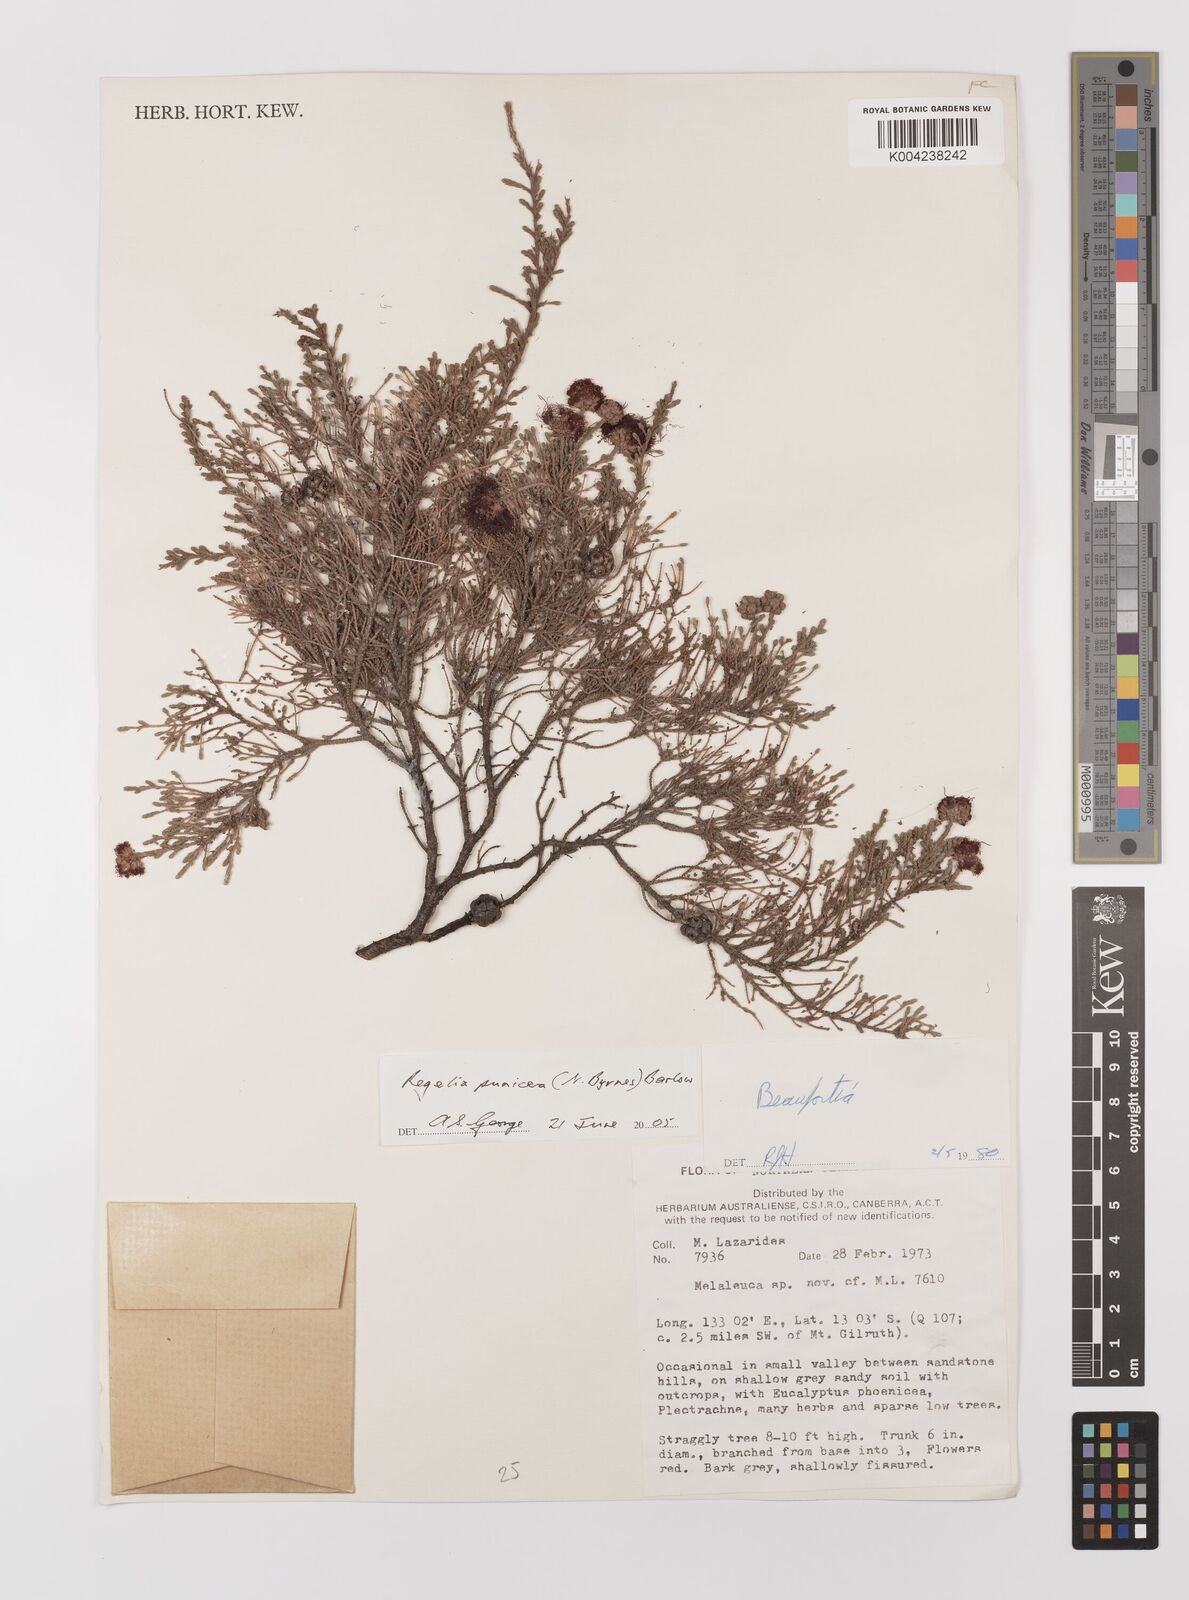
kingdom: Plantae
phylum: Tracheophyta
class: Magnoliopsida
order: Myrtales
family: Myrtaceae
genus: Melaleuca
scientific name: Melaleuca punicea
